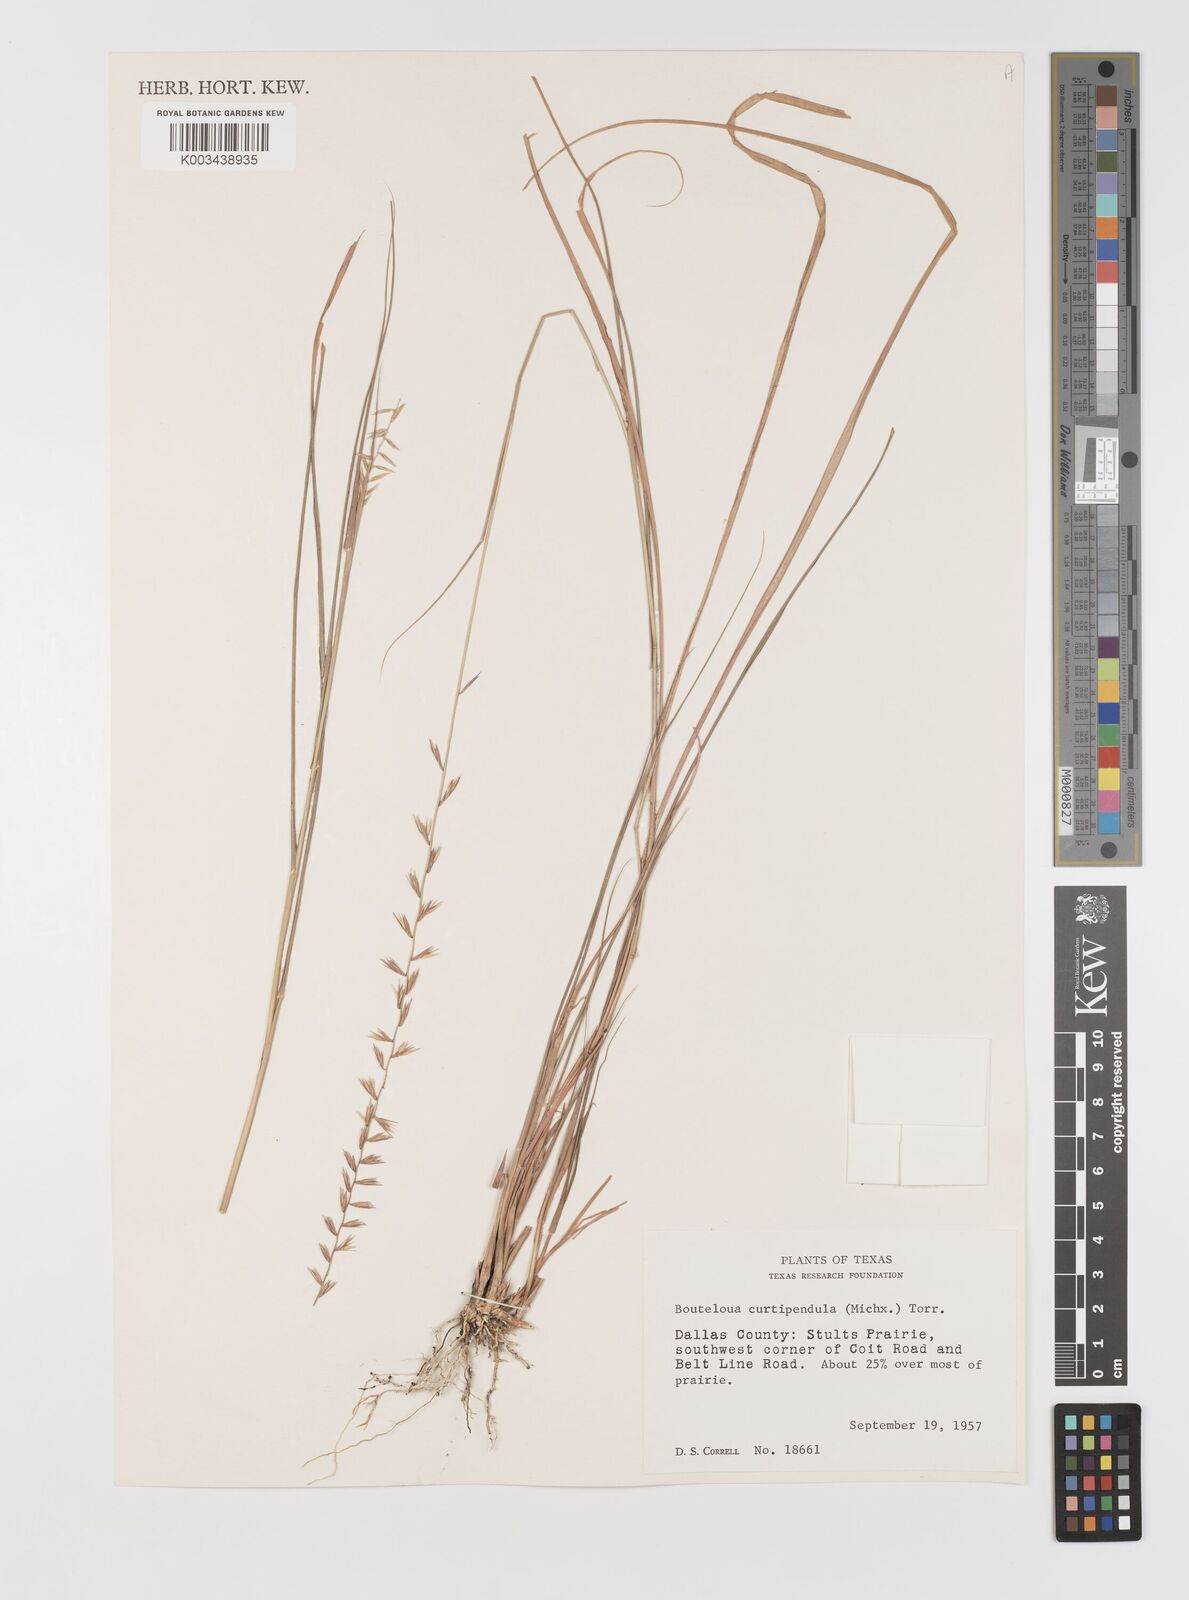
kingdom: Plantae
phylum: Tracheophyta
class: Liliopsida
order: Poales
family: Poaceae
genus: Bouteloua
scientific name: Bouteloua curtipendula
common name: Side-oats grama
